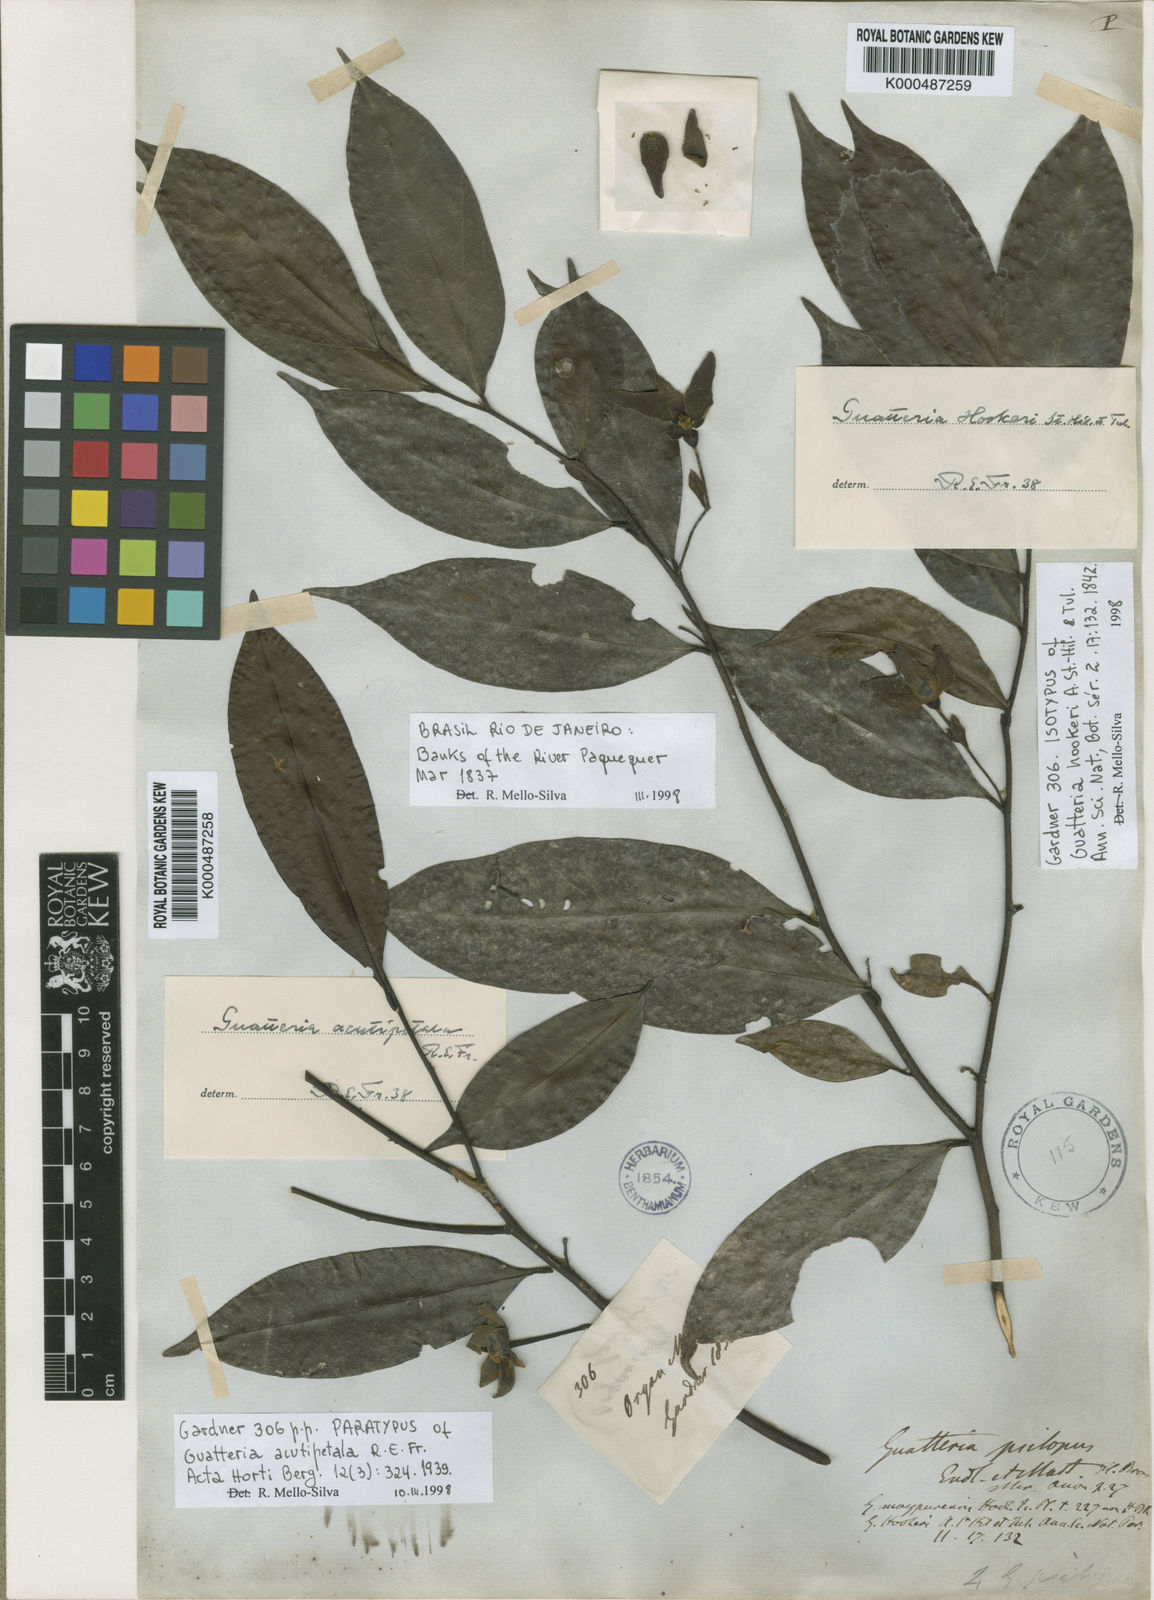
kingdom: Plantae
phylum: Tracheophyta
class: Magnoliopsida
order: Magnoliales
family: Annonaceae
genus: Guatteria
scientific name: Guatteria australis
